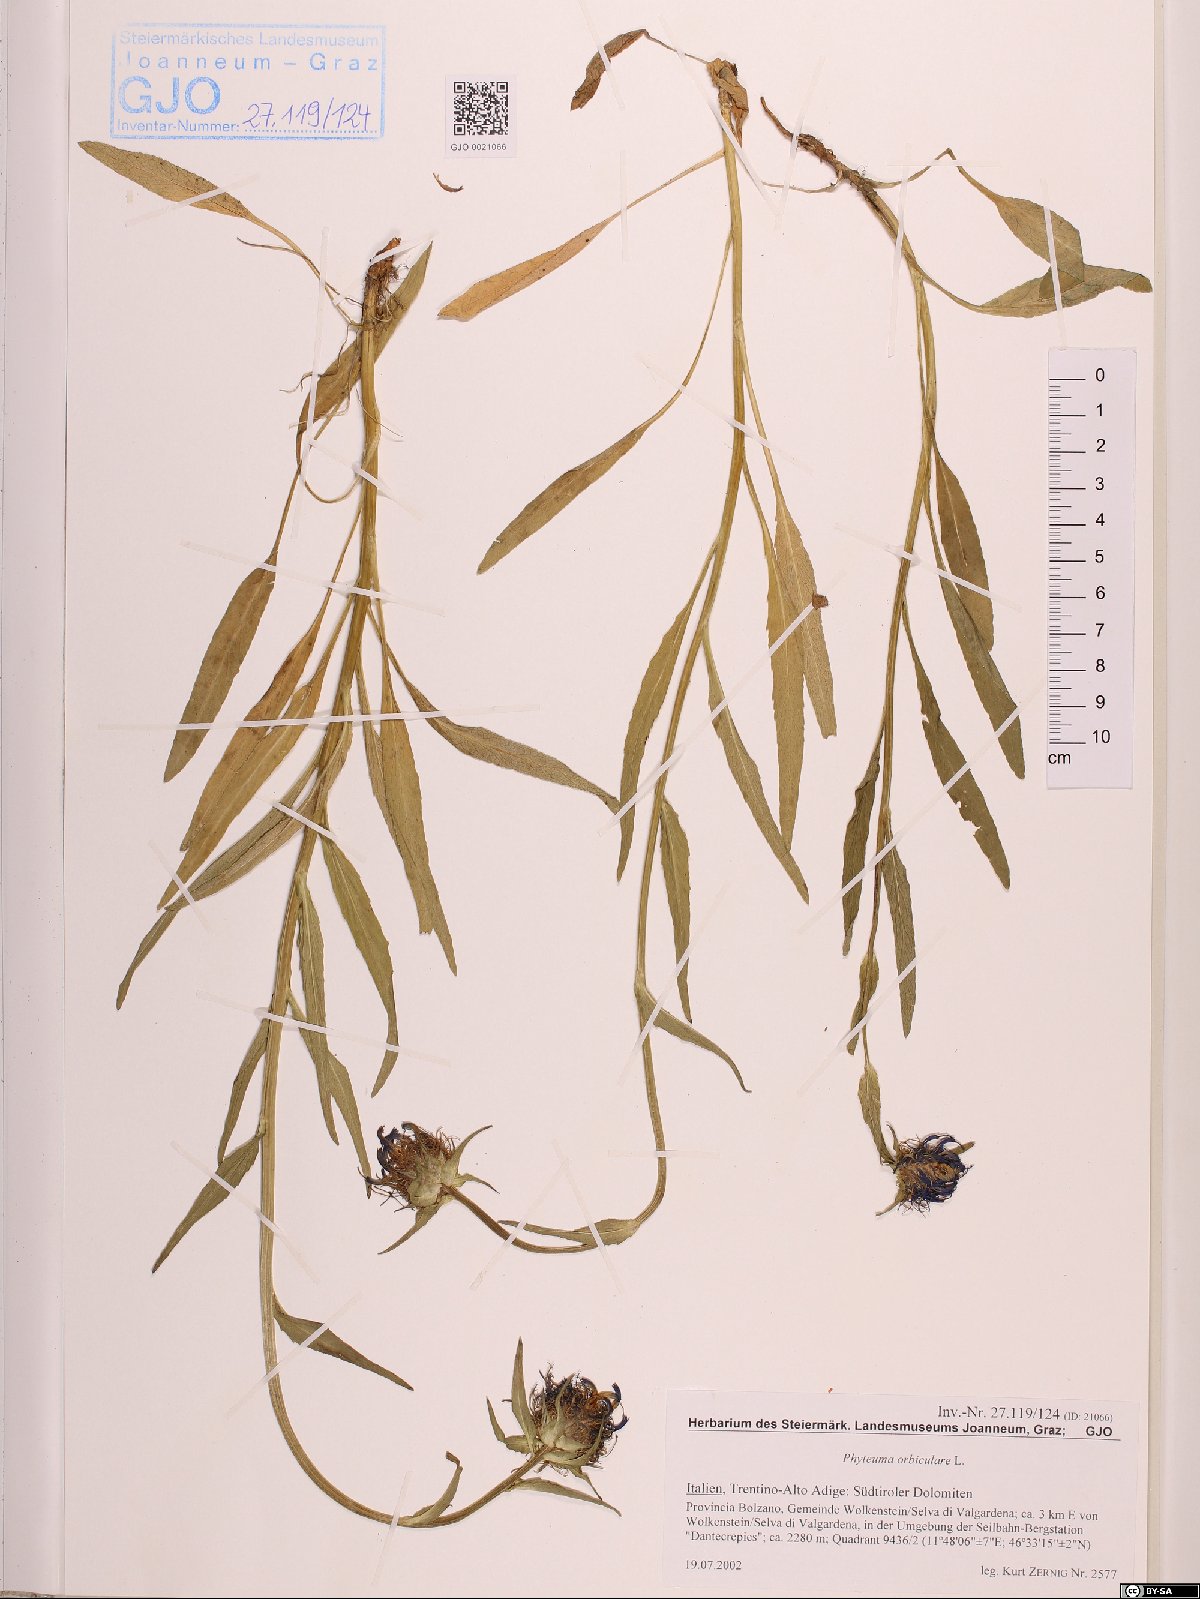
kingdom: Plantae
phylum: Tracheophyta
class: Magnoliopsida
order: Asterales
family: Campanulaceae
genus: Phyteuma
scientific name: Phyteuma orbiculare
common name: Round-headed rampion
